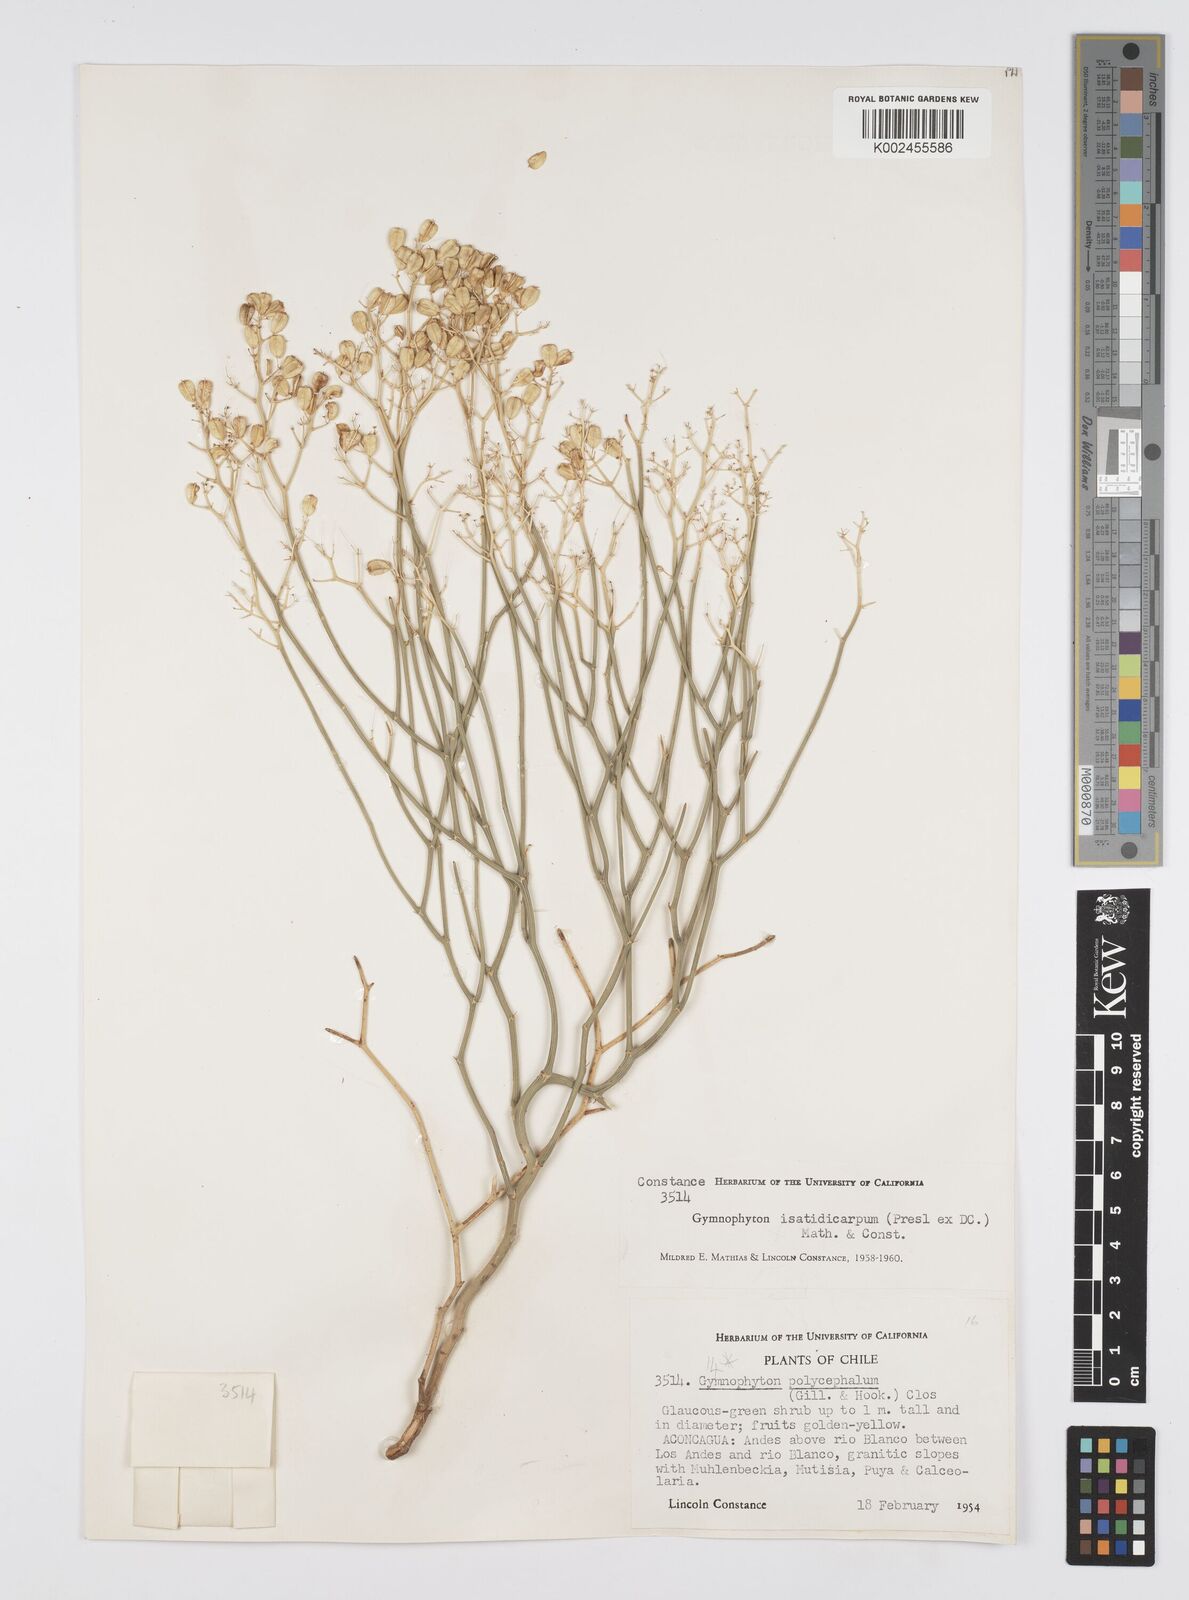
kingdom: Plantae
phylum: Tracheophyta
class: Magnoliopsida
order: Apiales
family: Apiaceae
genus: Gymnophyton
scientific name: Gymnophyton isatidicarpum
